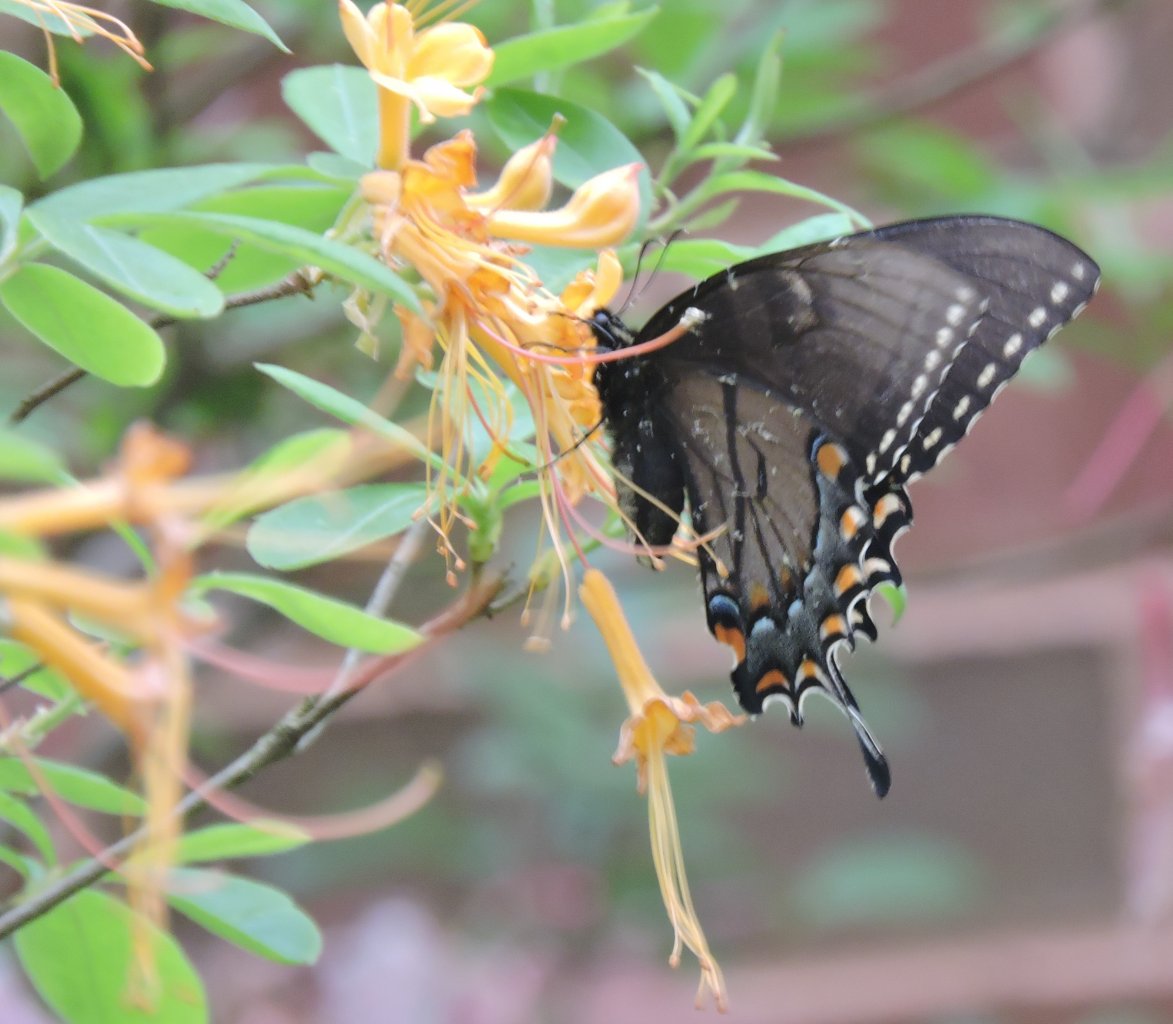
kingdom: Animalia
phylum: Arthropoda
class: Insecta
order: Lepidoptera
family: Papilionidae
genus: Pterourus
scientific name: Pterourus glaucus
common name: Eastern Tiger Swallowtail
